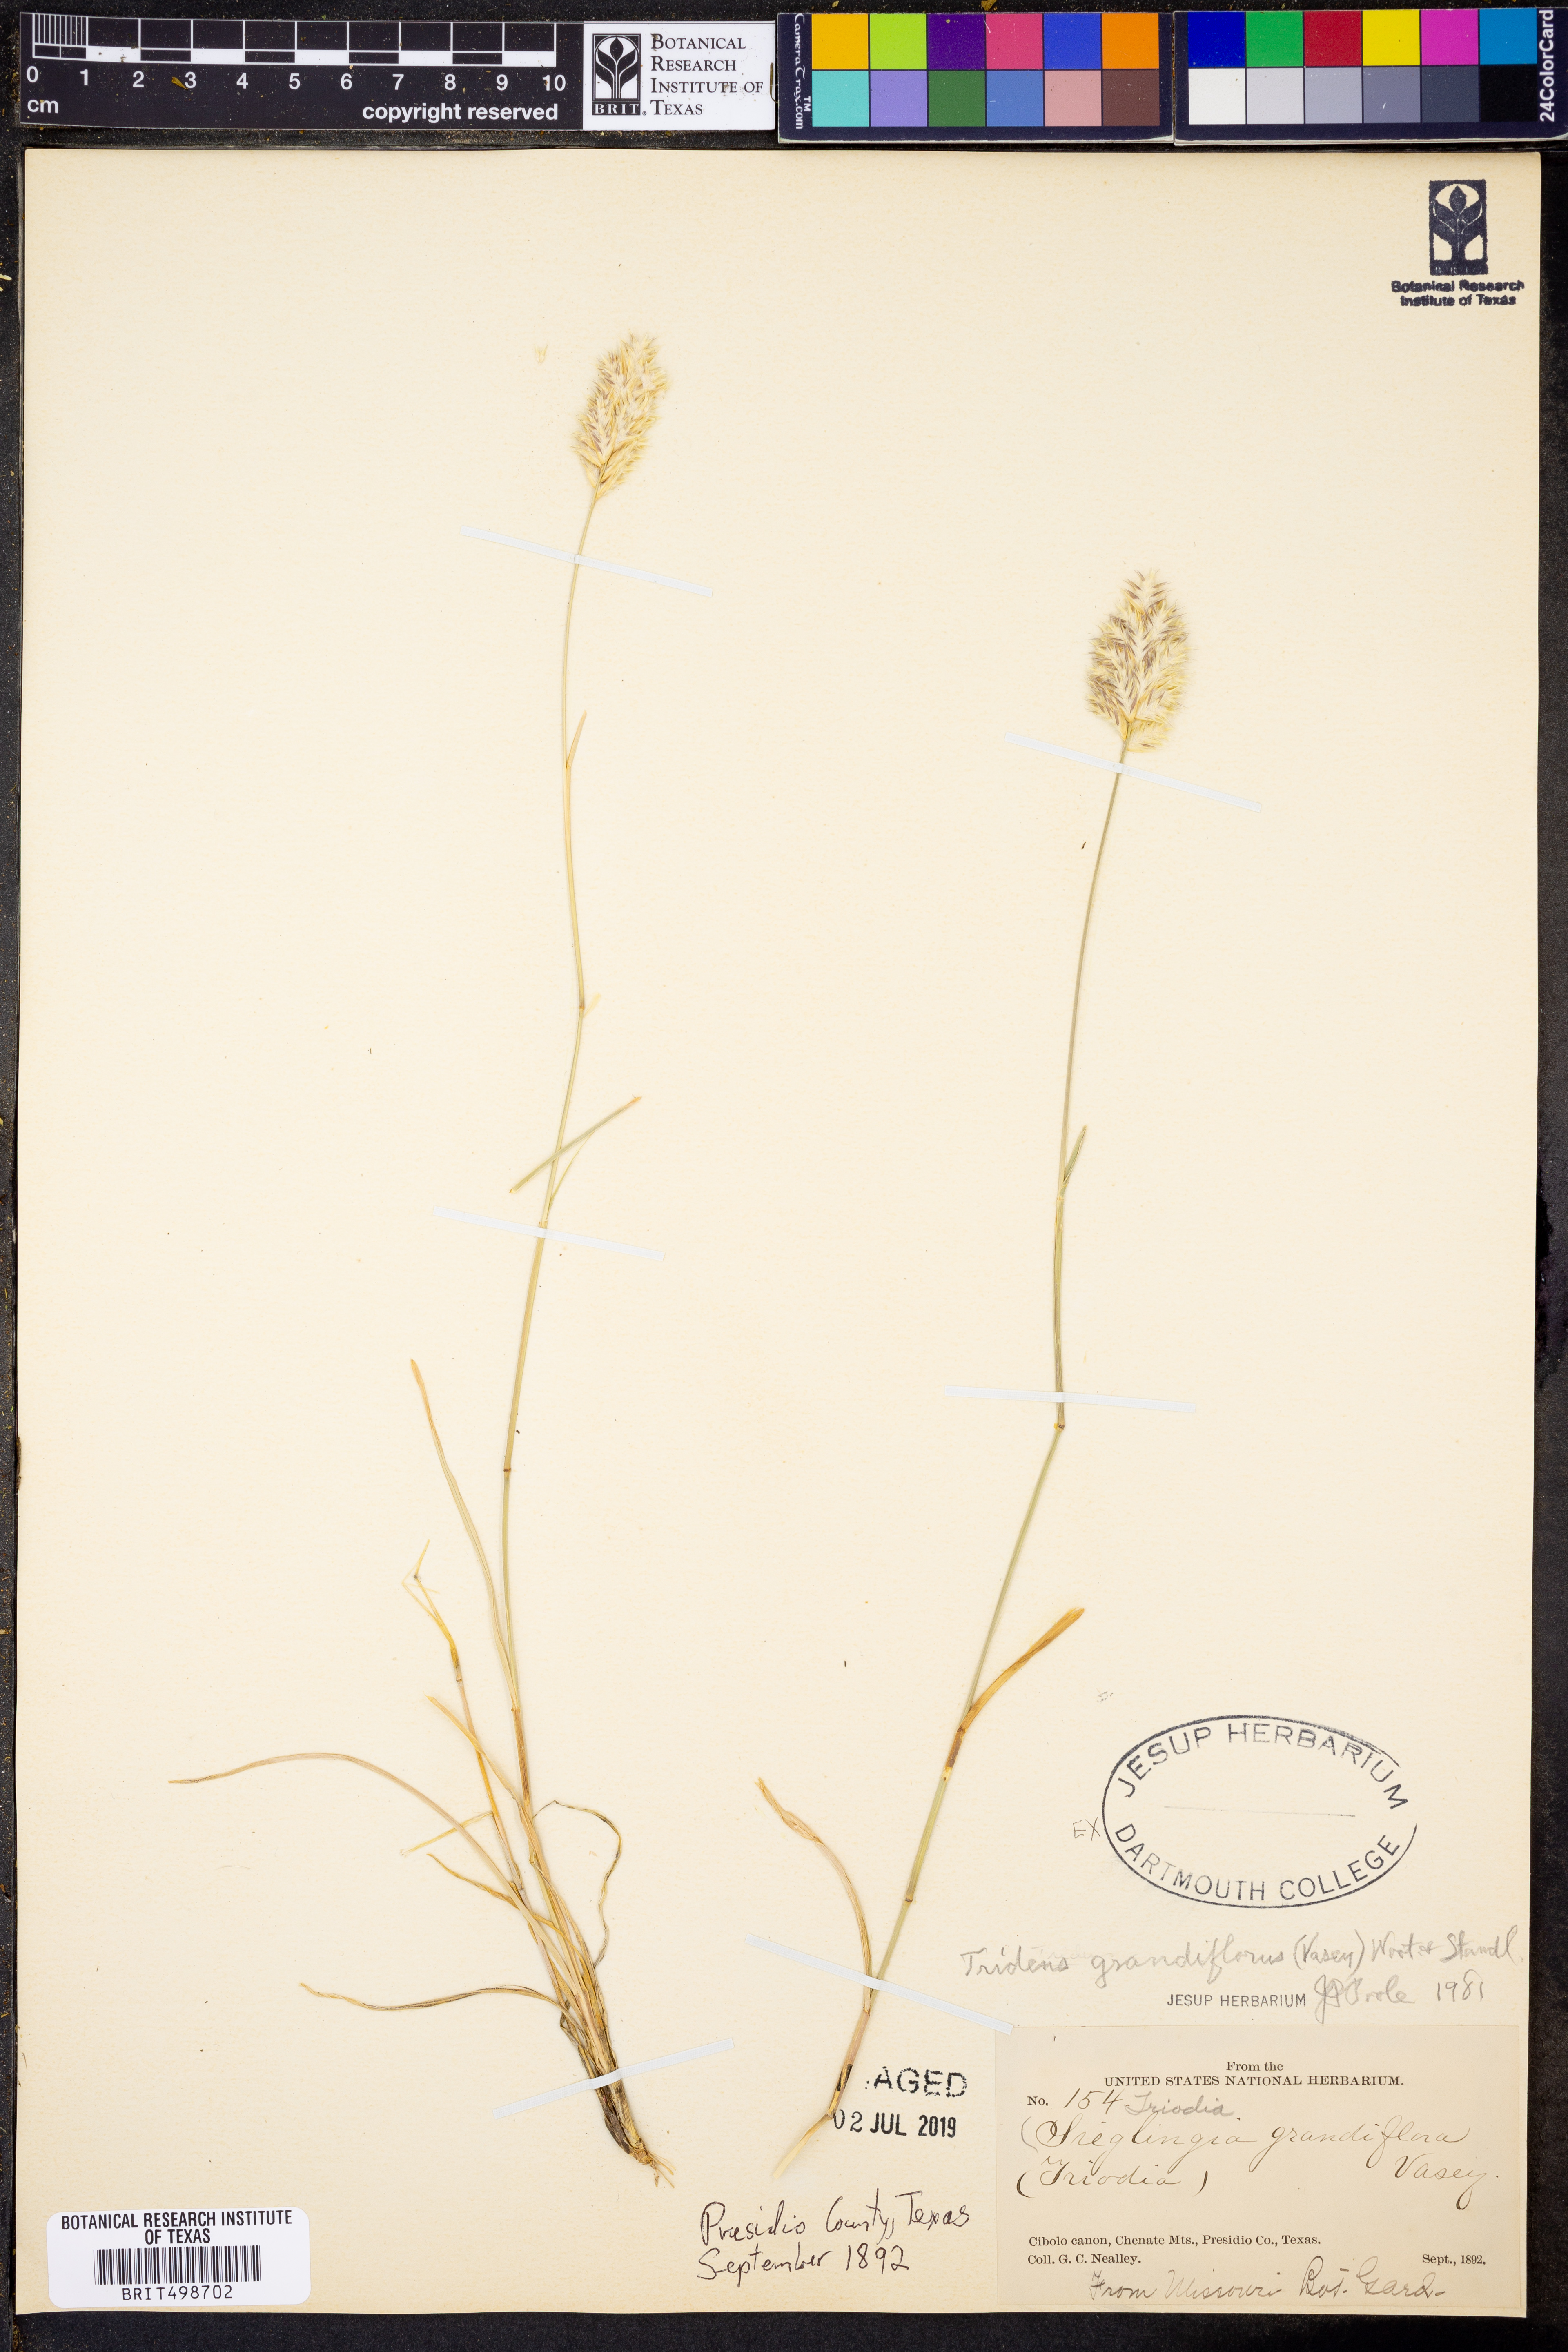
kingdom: Plantae
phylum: Tracheophyta
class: Liliopsida
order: Poales
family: Poaceae
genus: Erioneuron
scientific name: Erioneuron avenaceum
